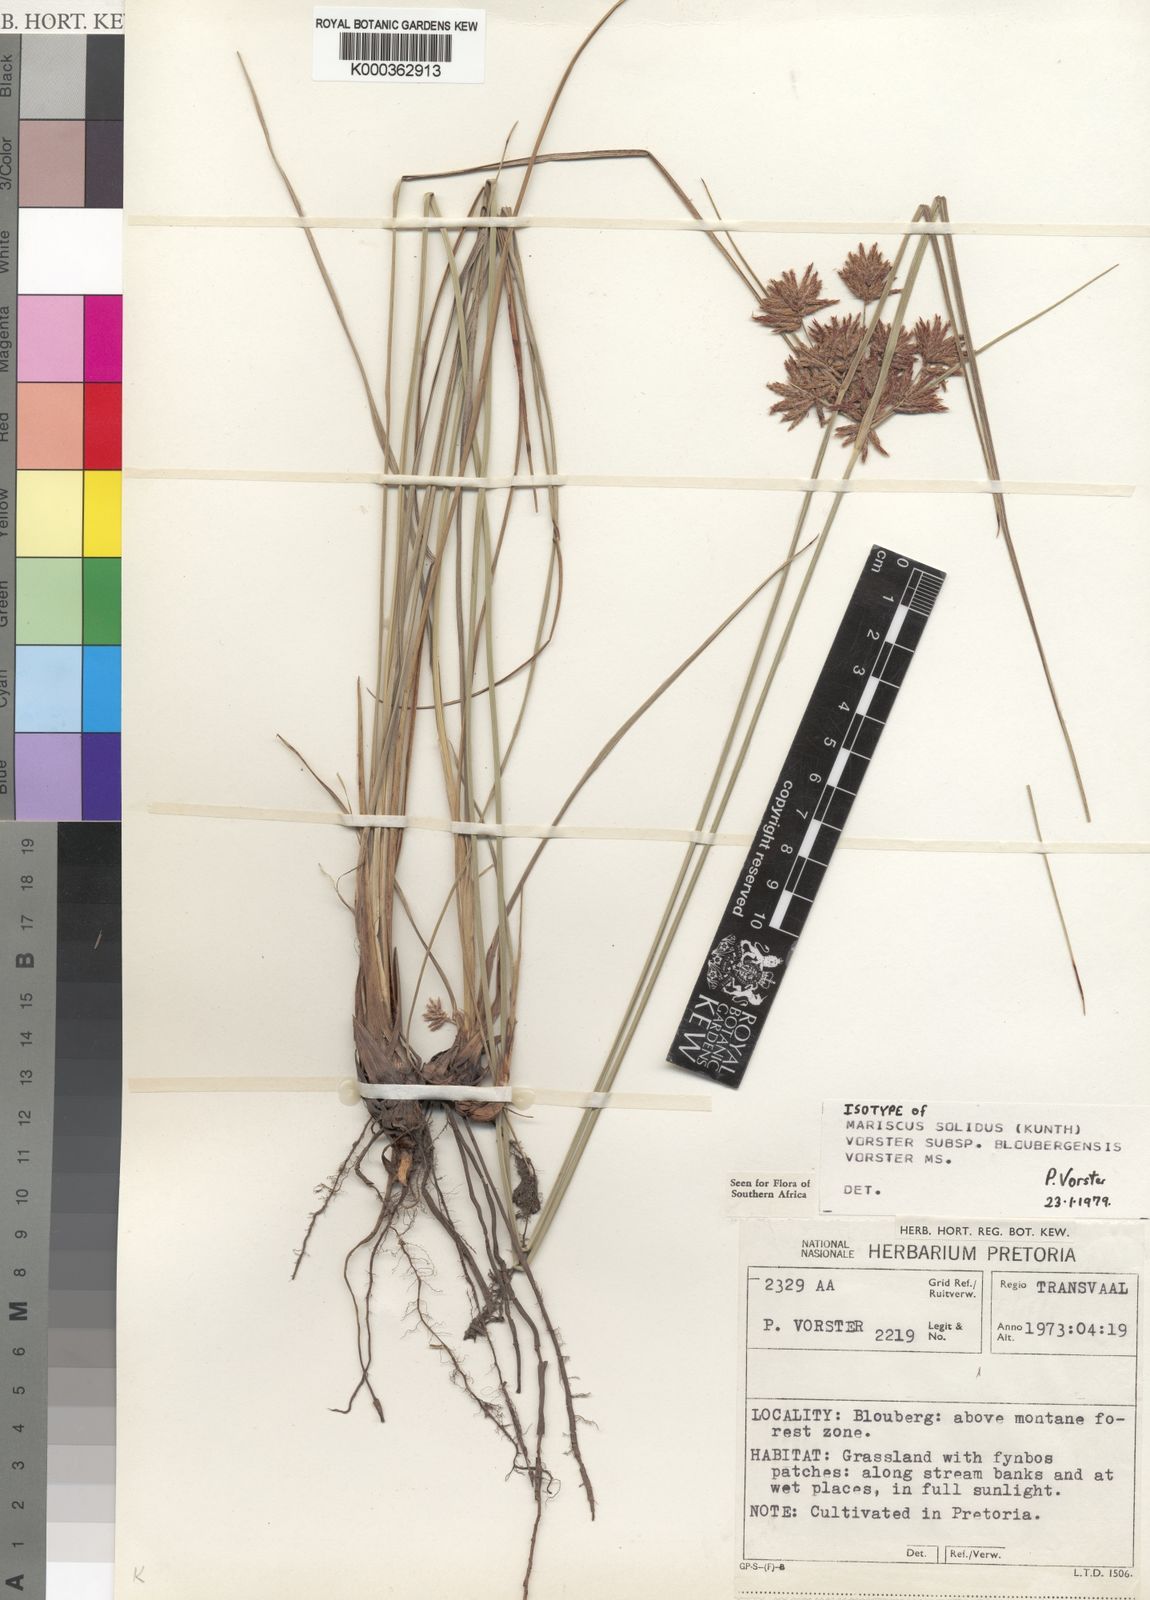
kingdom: Plantae
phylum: Tracheophyta
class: Liliopsida
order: Poales
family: Cyperaceae
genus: Cyperus
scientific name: Cyperus albostriatus
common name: Dwarf umbrella-grass
